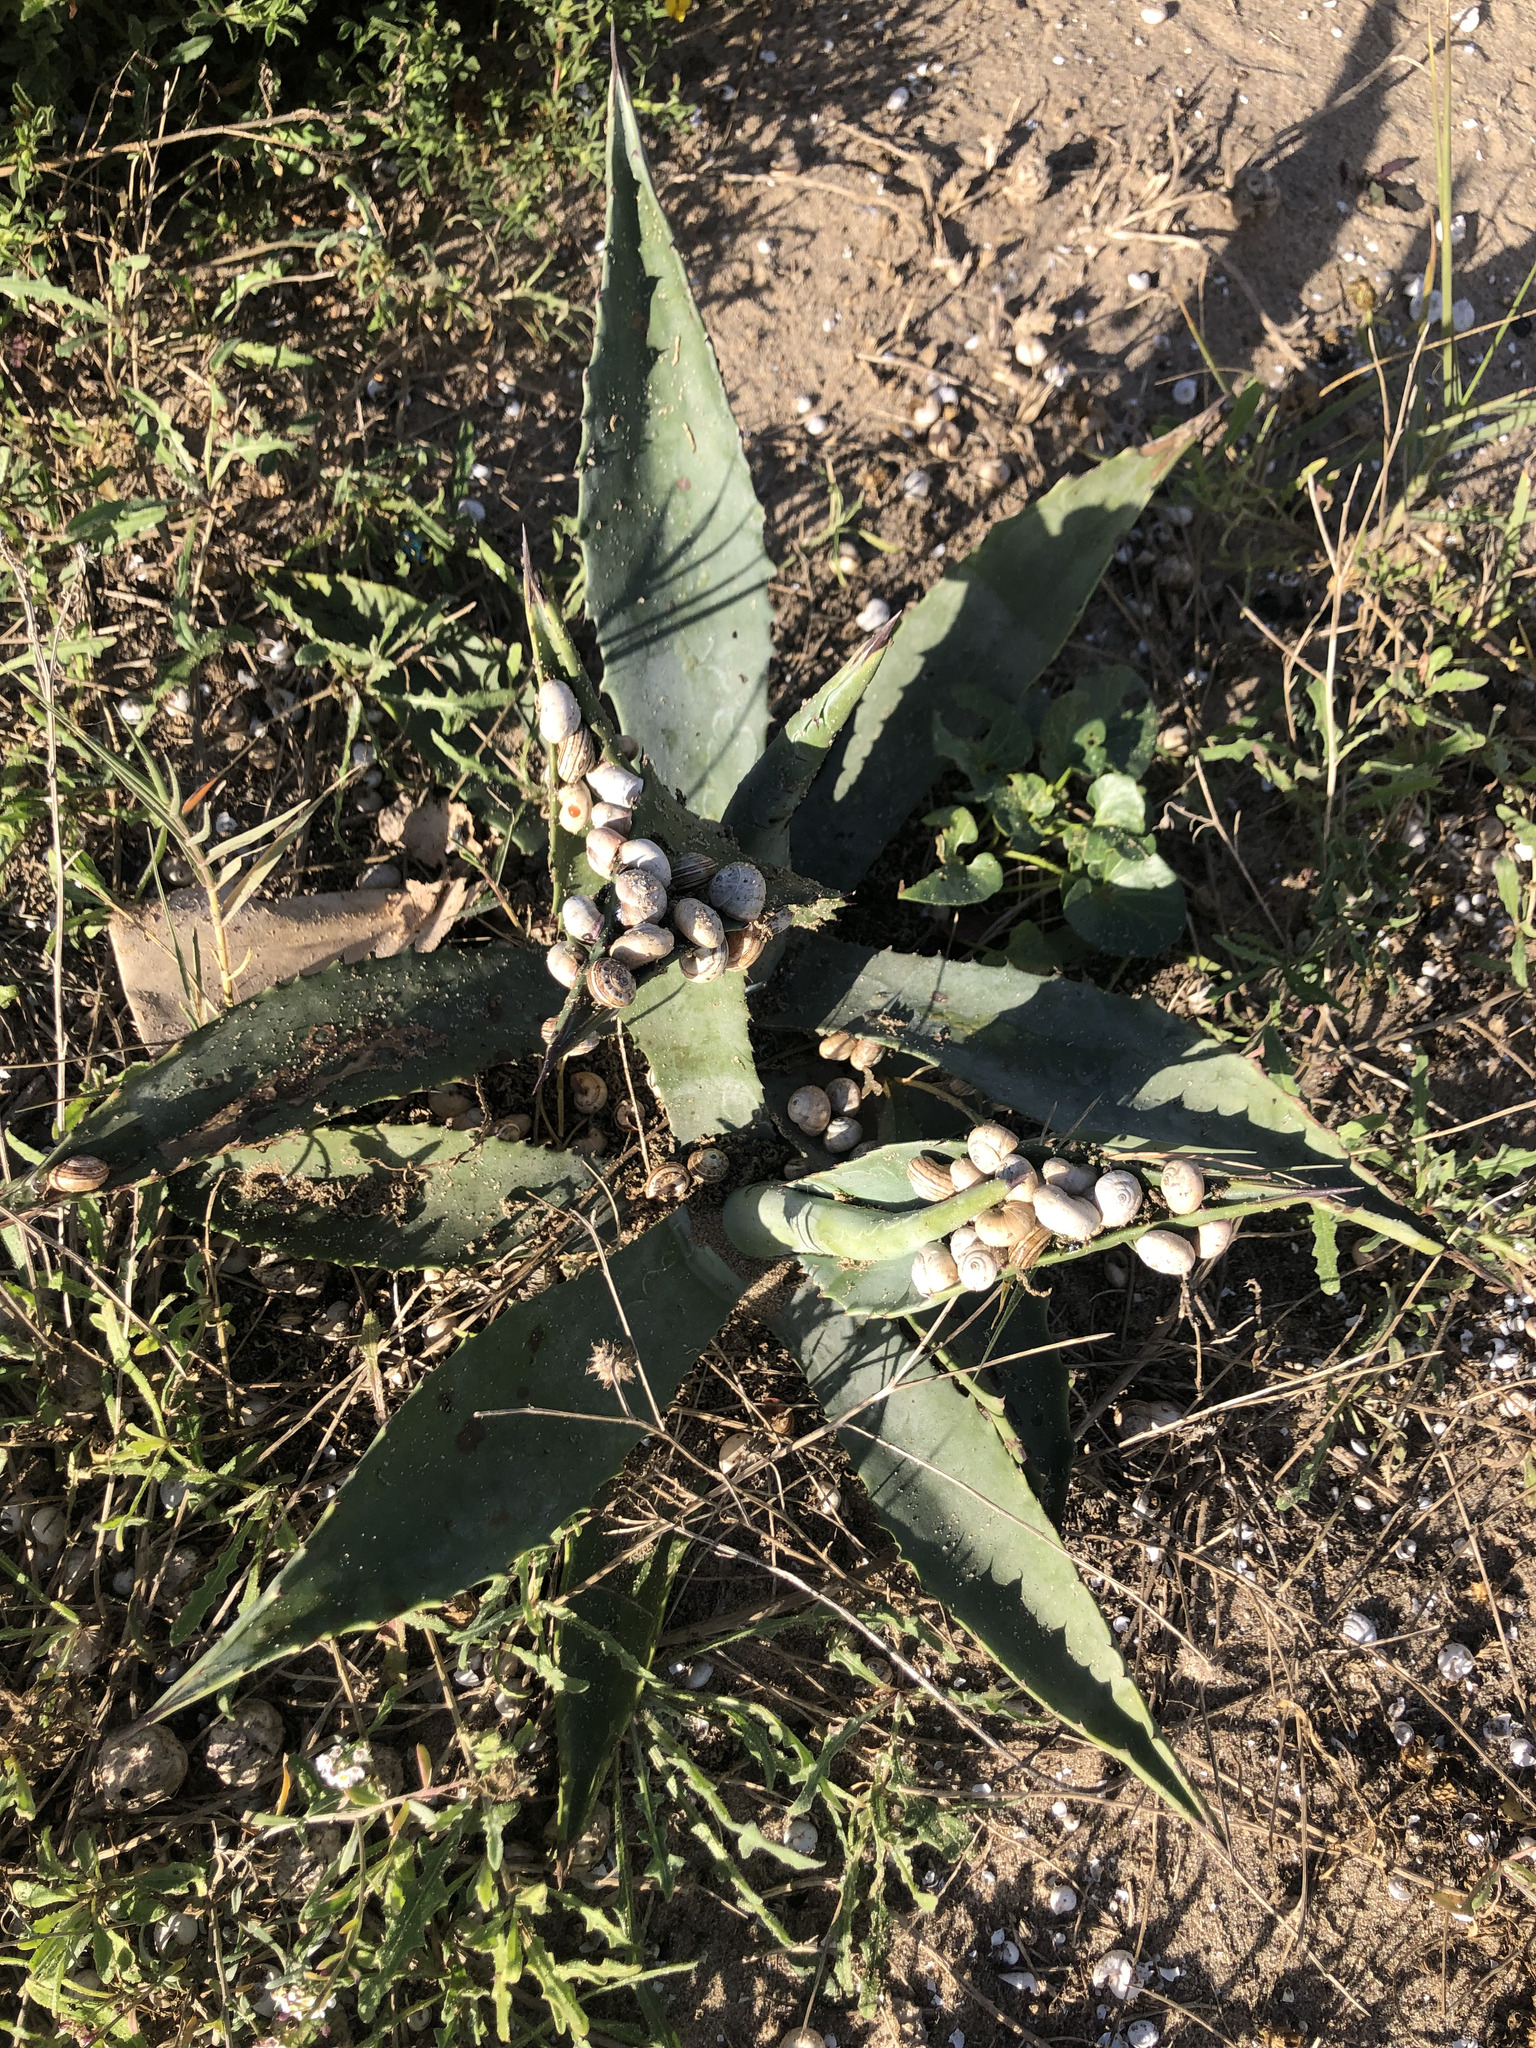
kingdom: Plantae
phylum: Tracheophyta
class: Liliopsida
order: Asparagales
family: Asparagaceae
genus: Agave
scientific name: Agave americana
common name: Centuryplant
